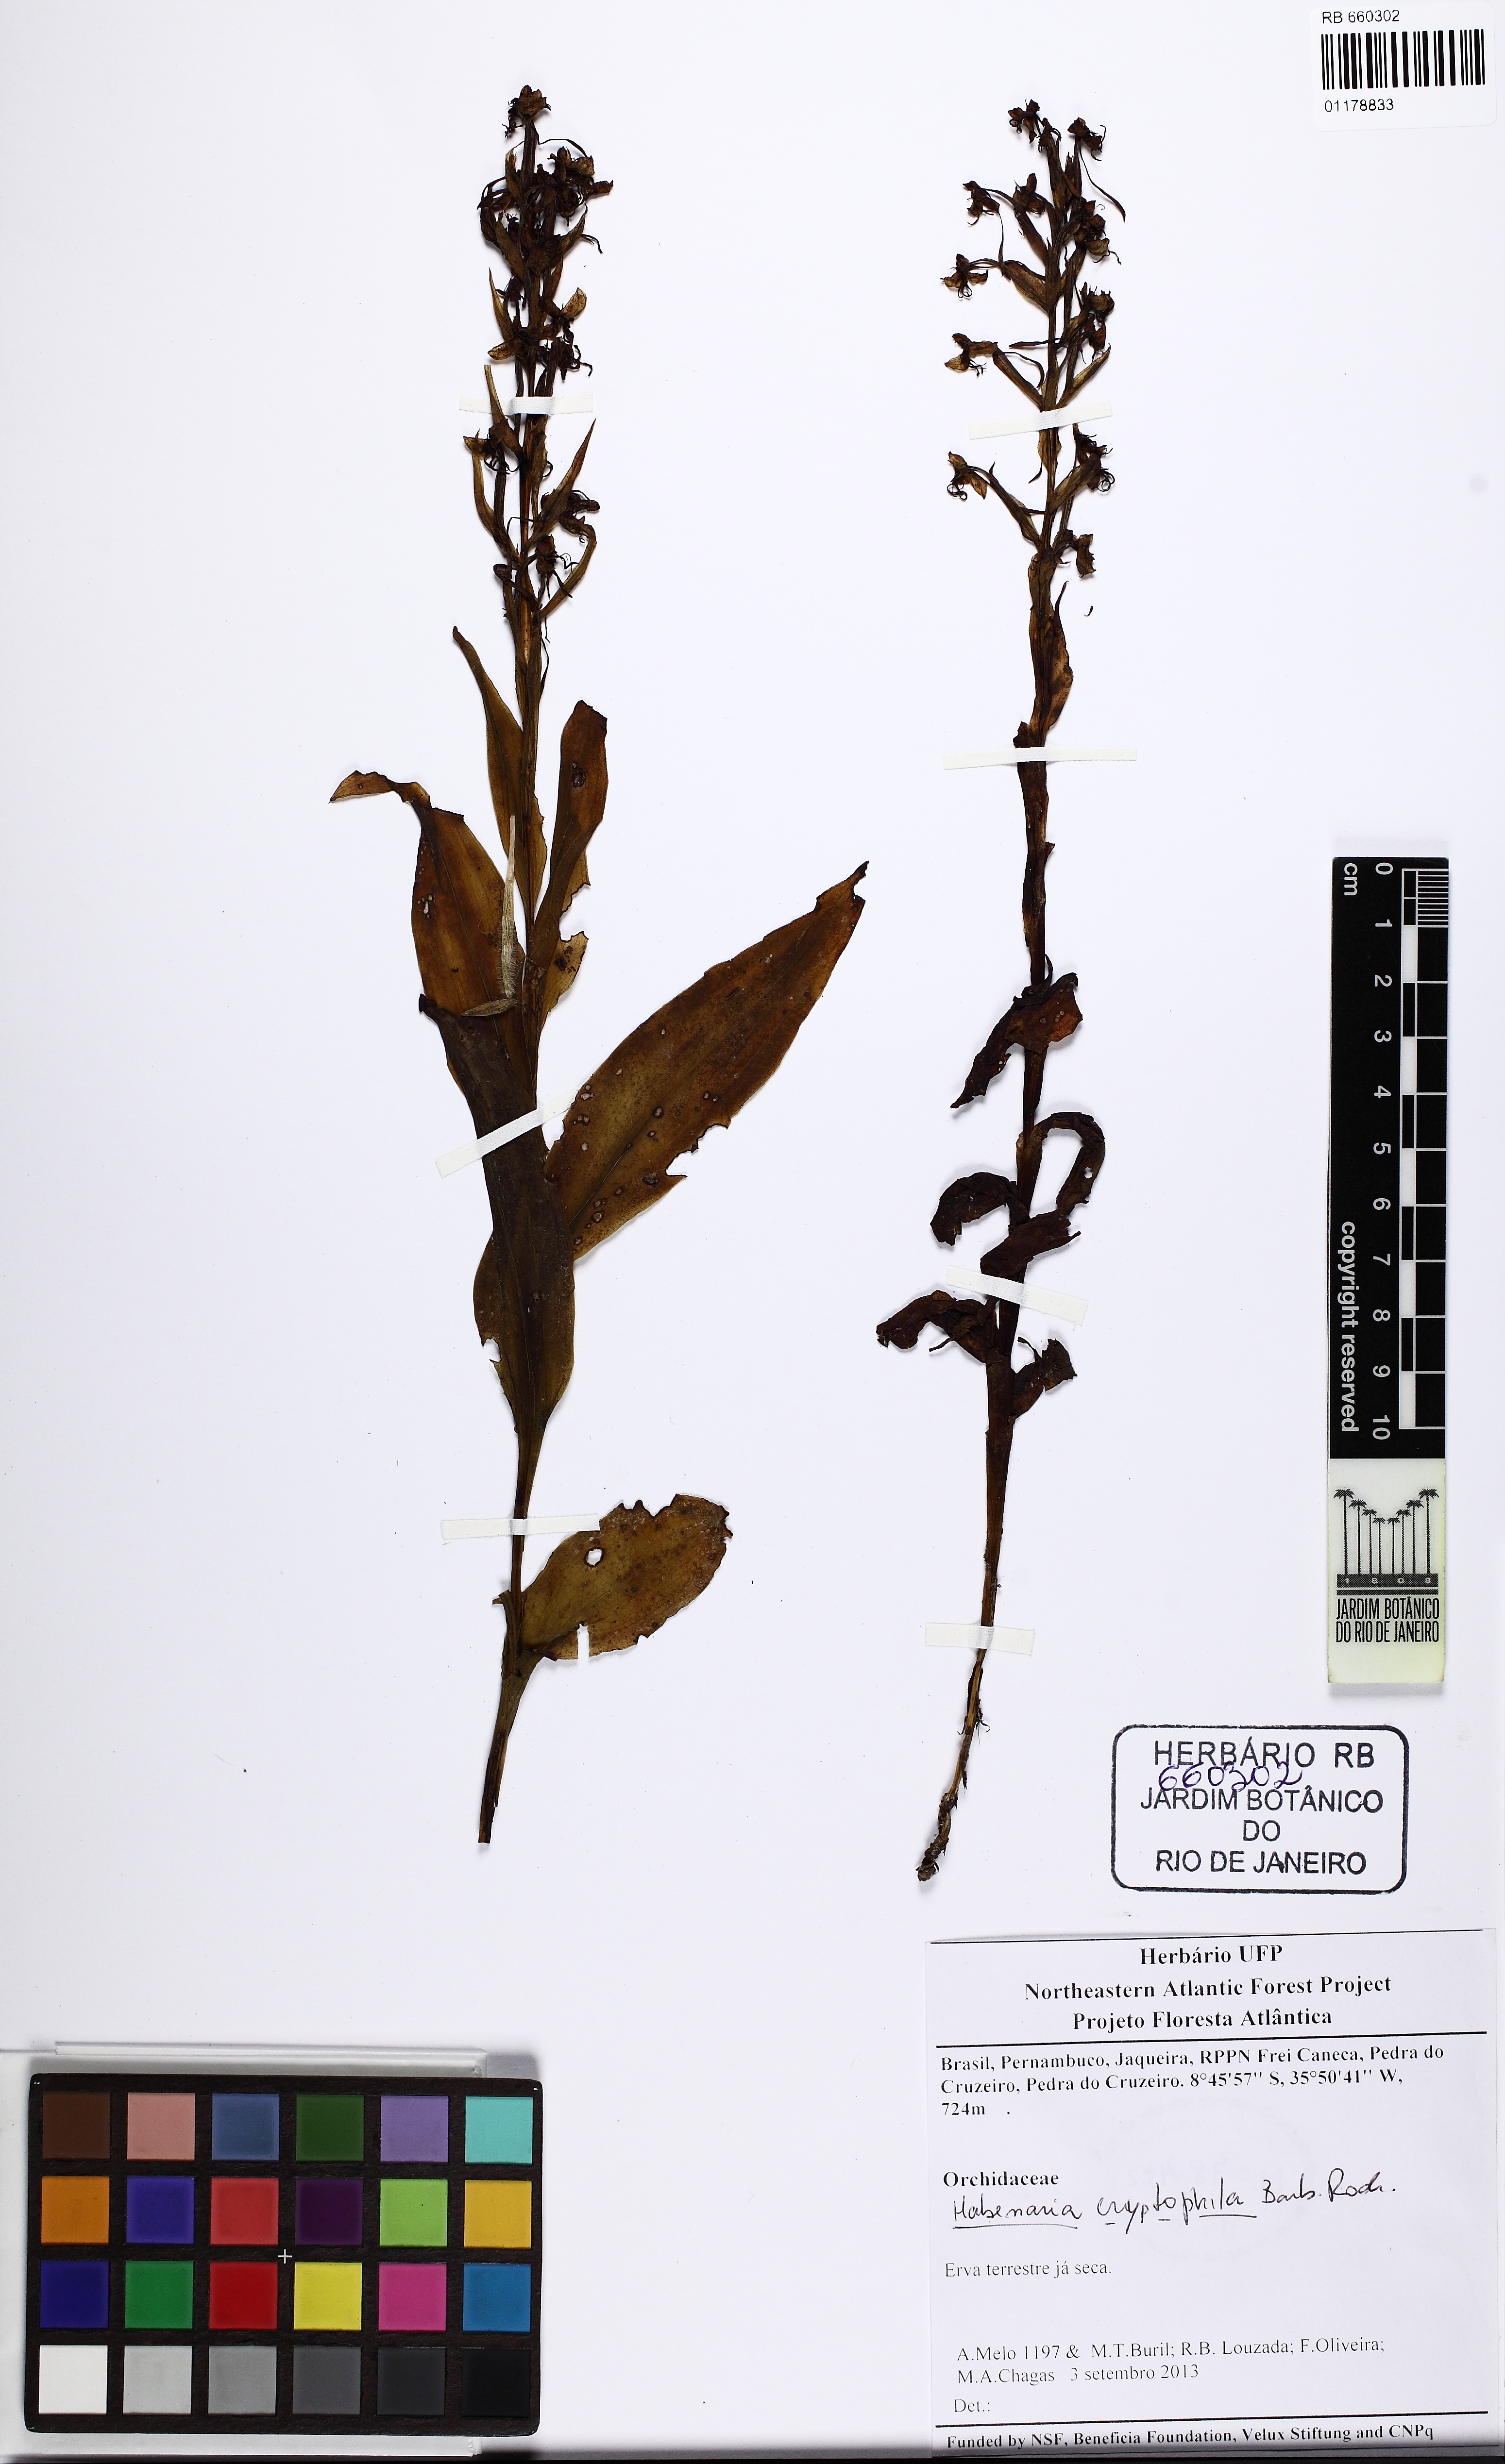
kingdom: Plantae
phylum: Tracheophyta
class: Liliopsida
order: Asparagales
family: Orchidaceae
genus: Habenaria
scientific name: Habenaria cryptophila
